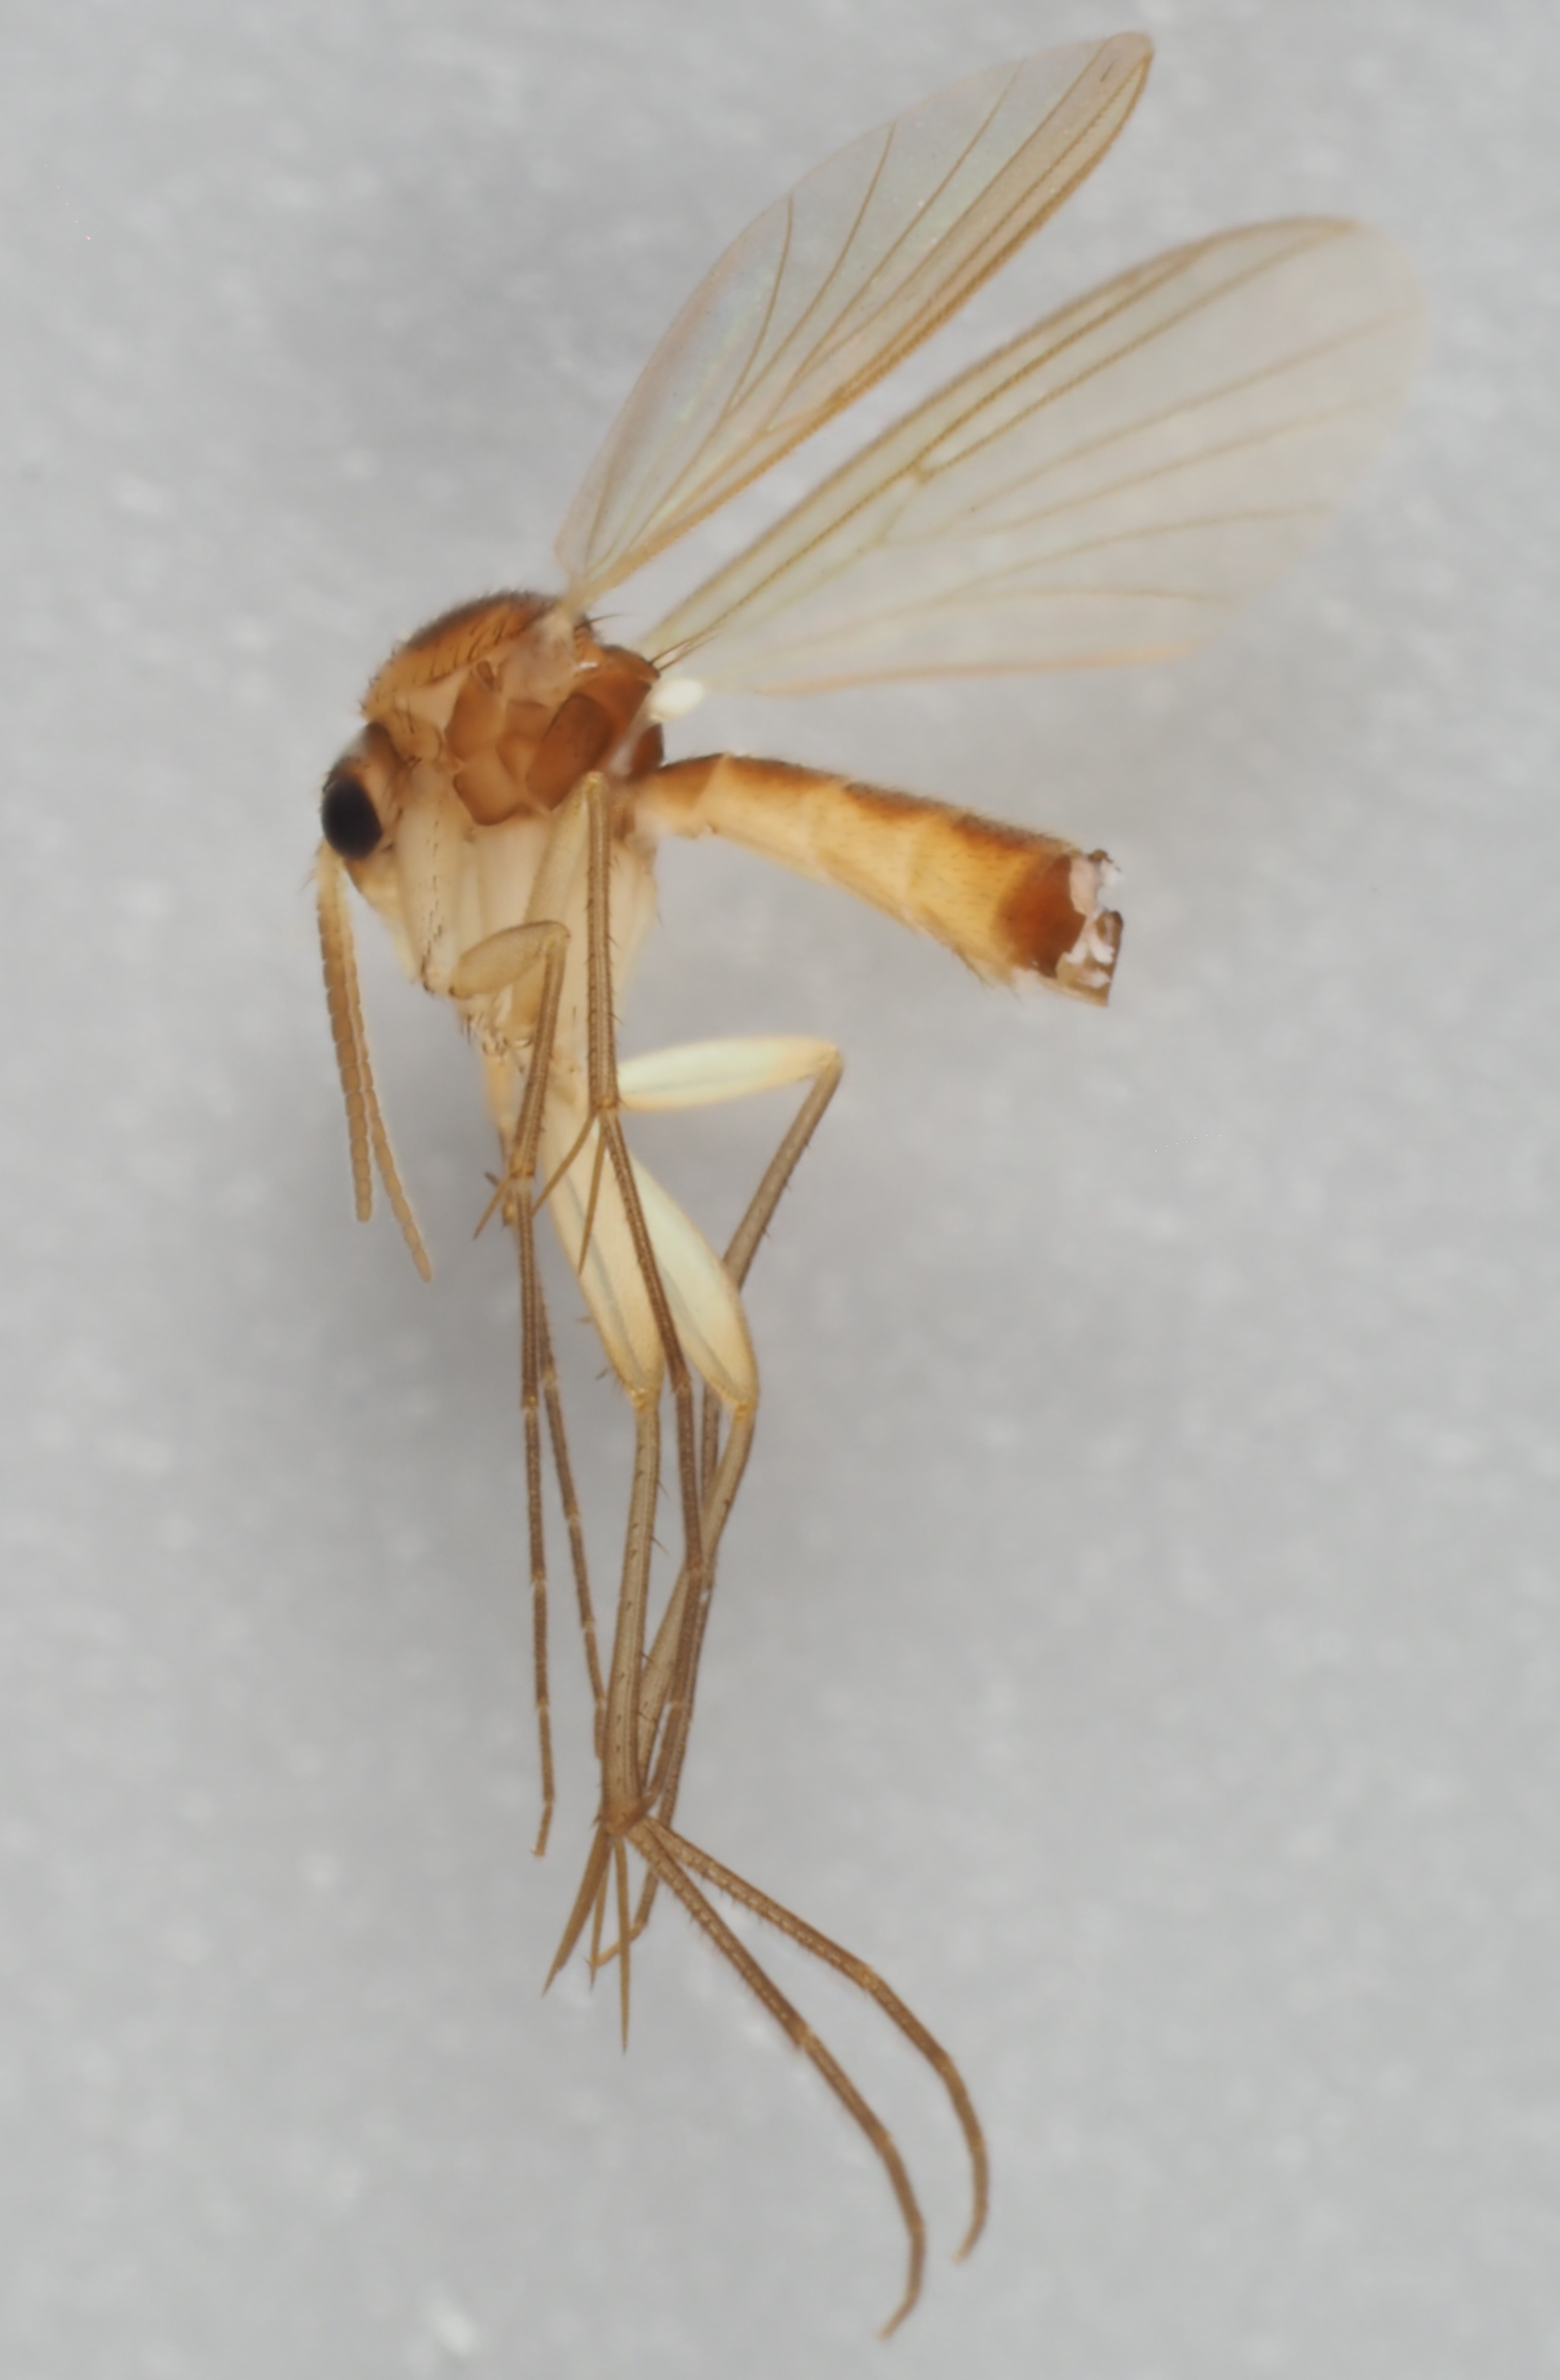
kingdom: Animalia
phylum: Arthropoda
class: Insecta
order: Diptera
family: Mycetophilidae
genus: Brevicornu
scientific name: Brevicornu fuscipenne
